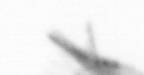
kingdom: Animalia
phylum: Arthropoda
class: Maxillopoda
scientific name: Maxillopoda
